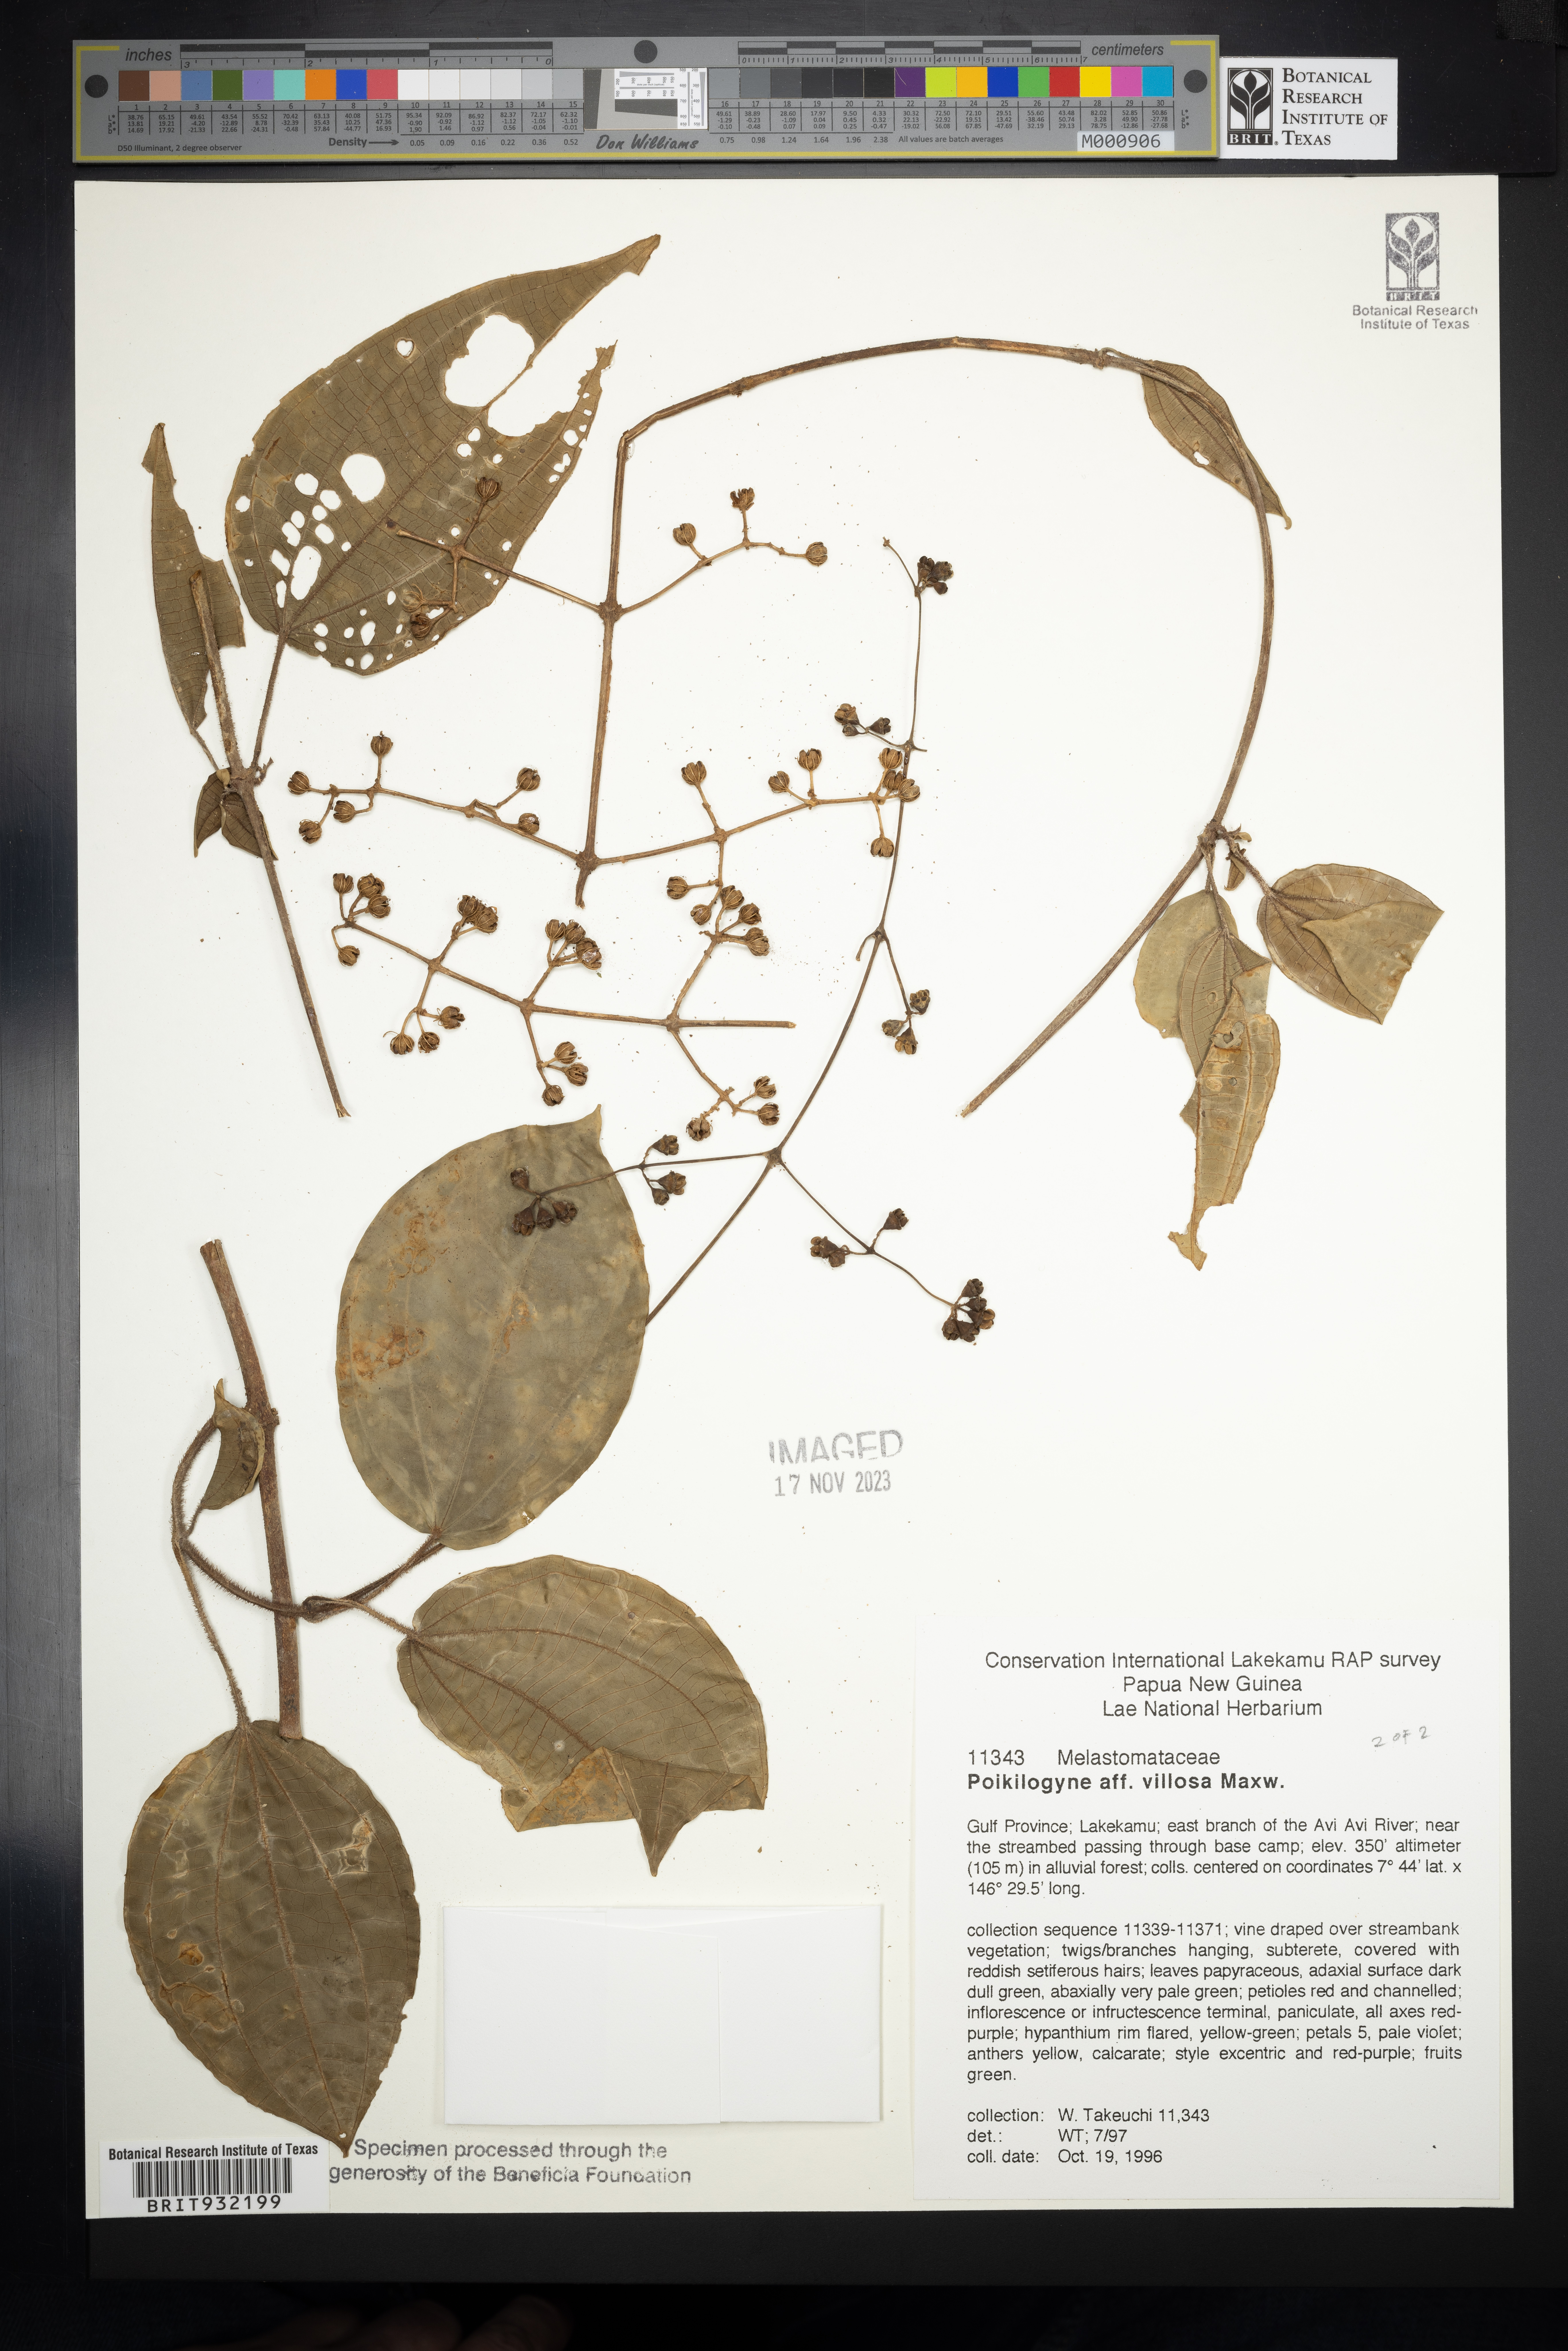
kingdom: Plantae
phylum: Tracheophyta
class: Magnoliopsida
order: Myrtales
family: Melastomataceae
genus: Poikilogyne
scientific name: Poikilogyne
